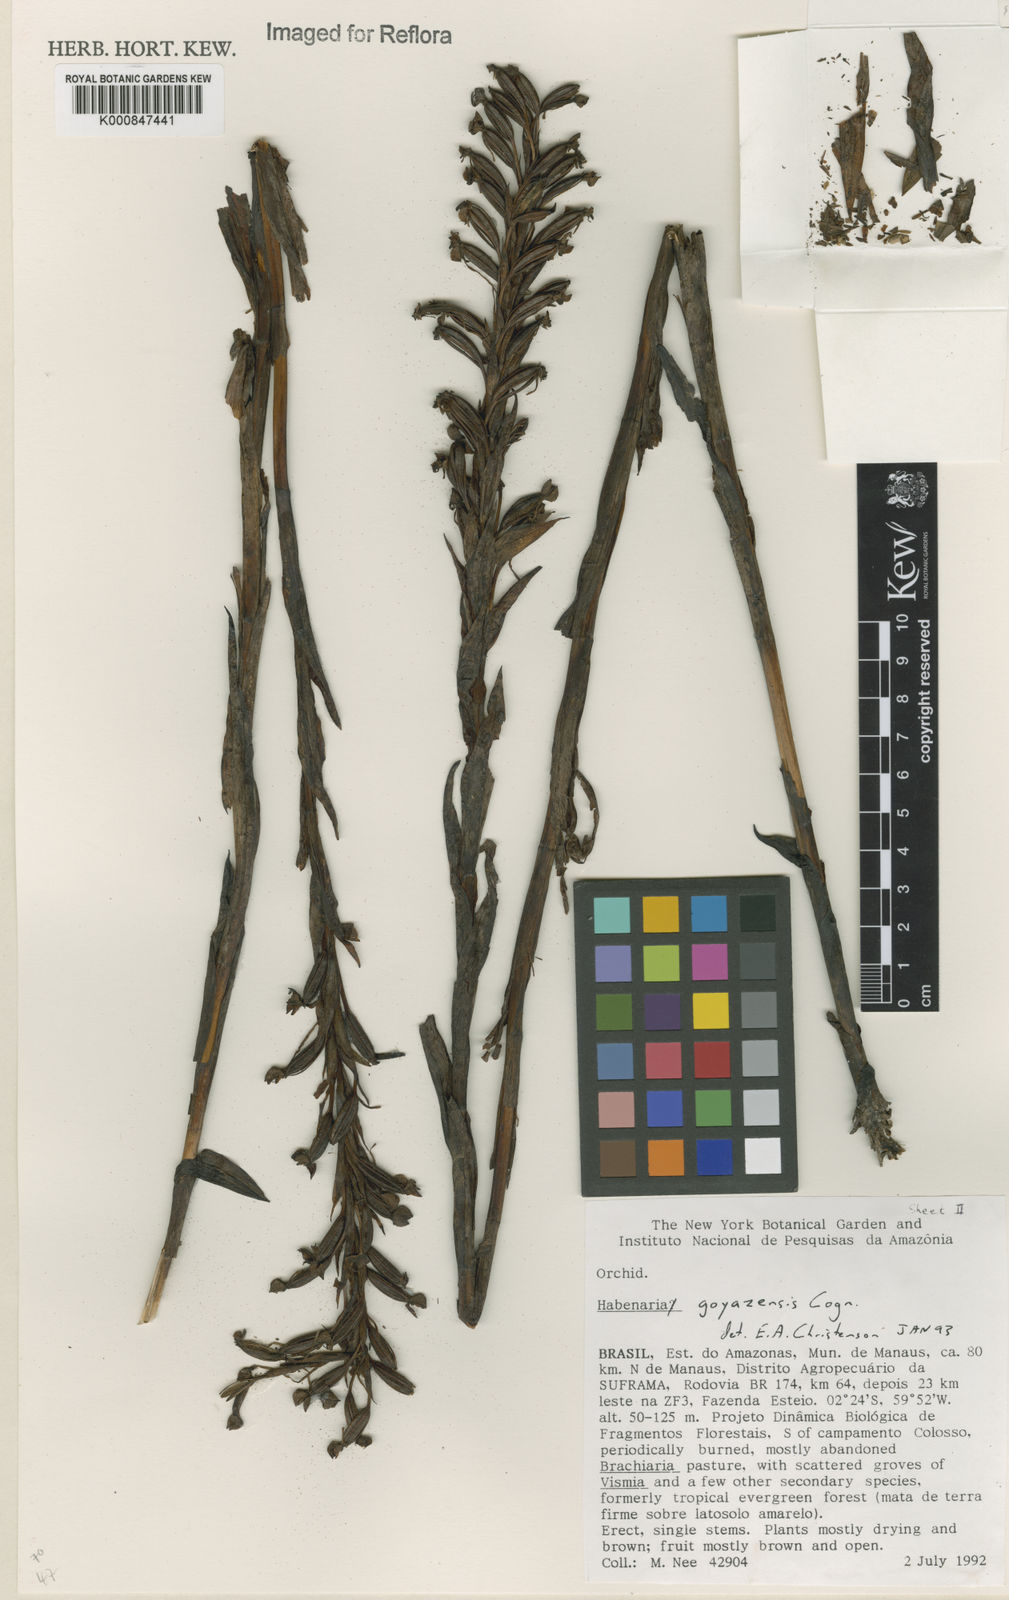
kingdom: Plantae
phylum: Tracheophyta
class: Liliopsida
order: Asparagales
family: Orchidaceae
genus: Habenaria
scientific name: Habenaria goyazensis
